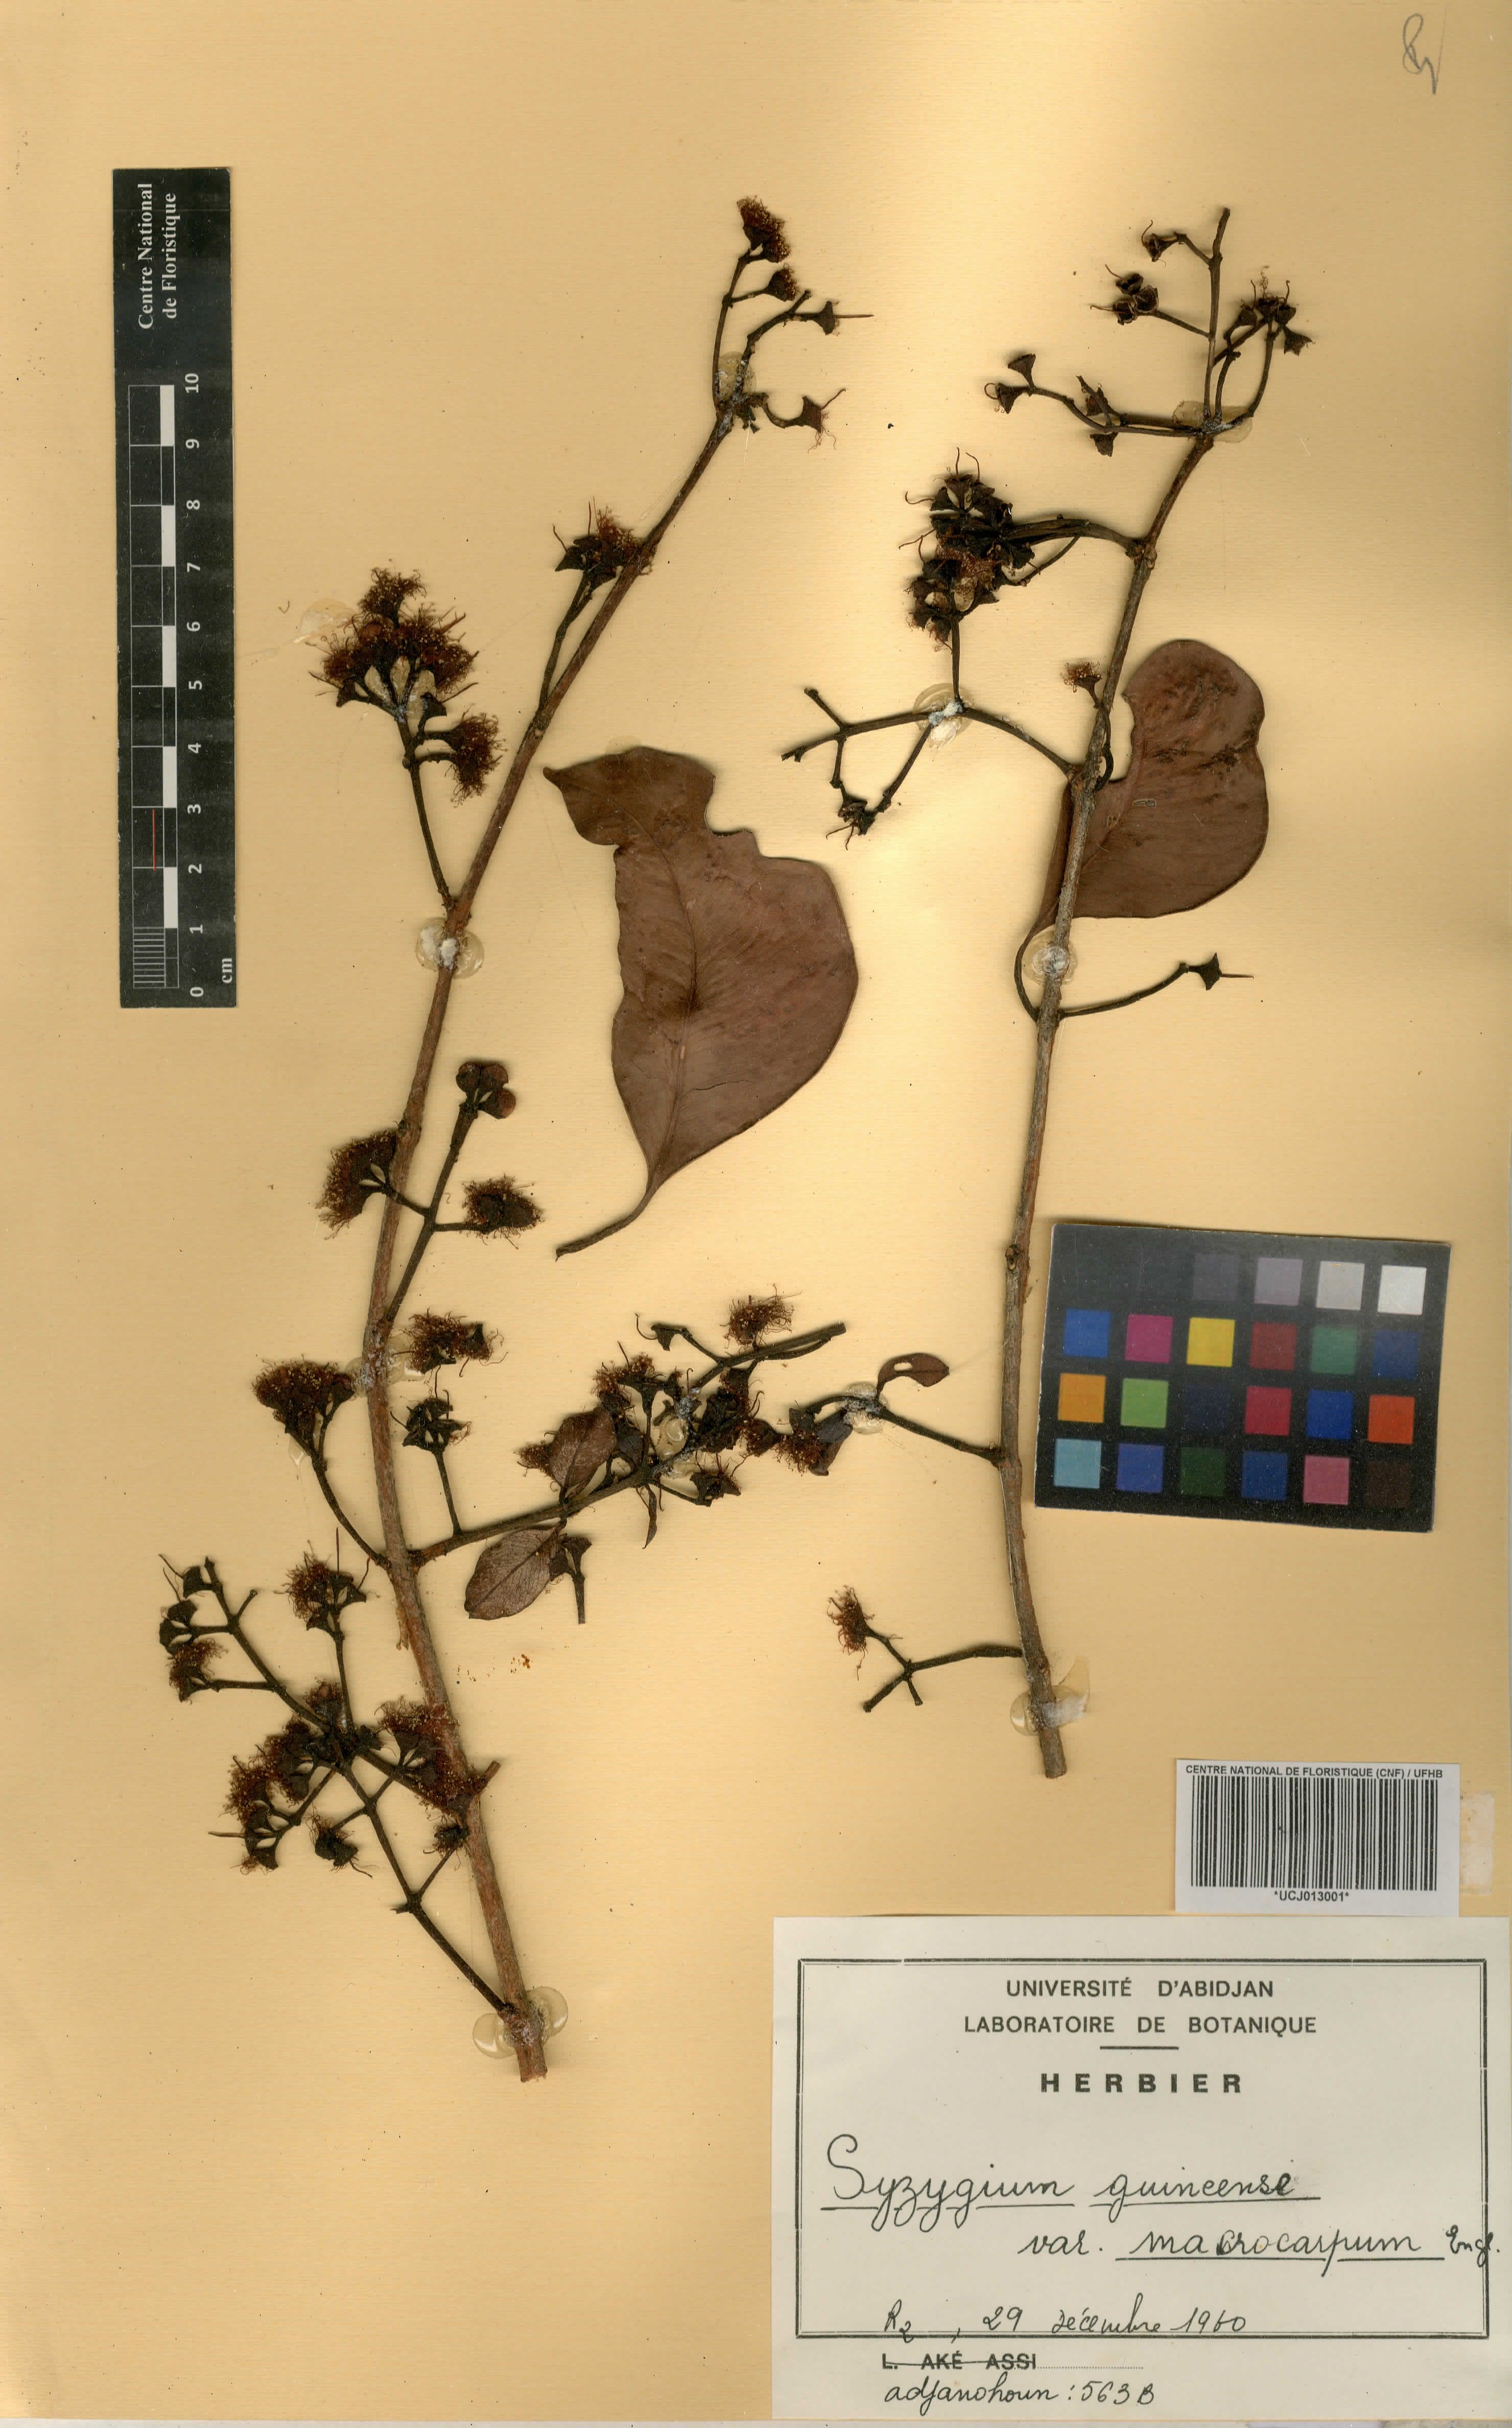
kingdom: Plantae
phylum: Tracheophyta
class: Magnoliopsida
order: Myrtales
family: Myrtaceae
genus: Syzygium
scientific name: Syzygium guineense
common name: Water-pear
